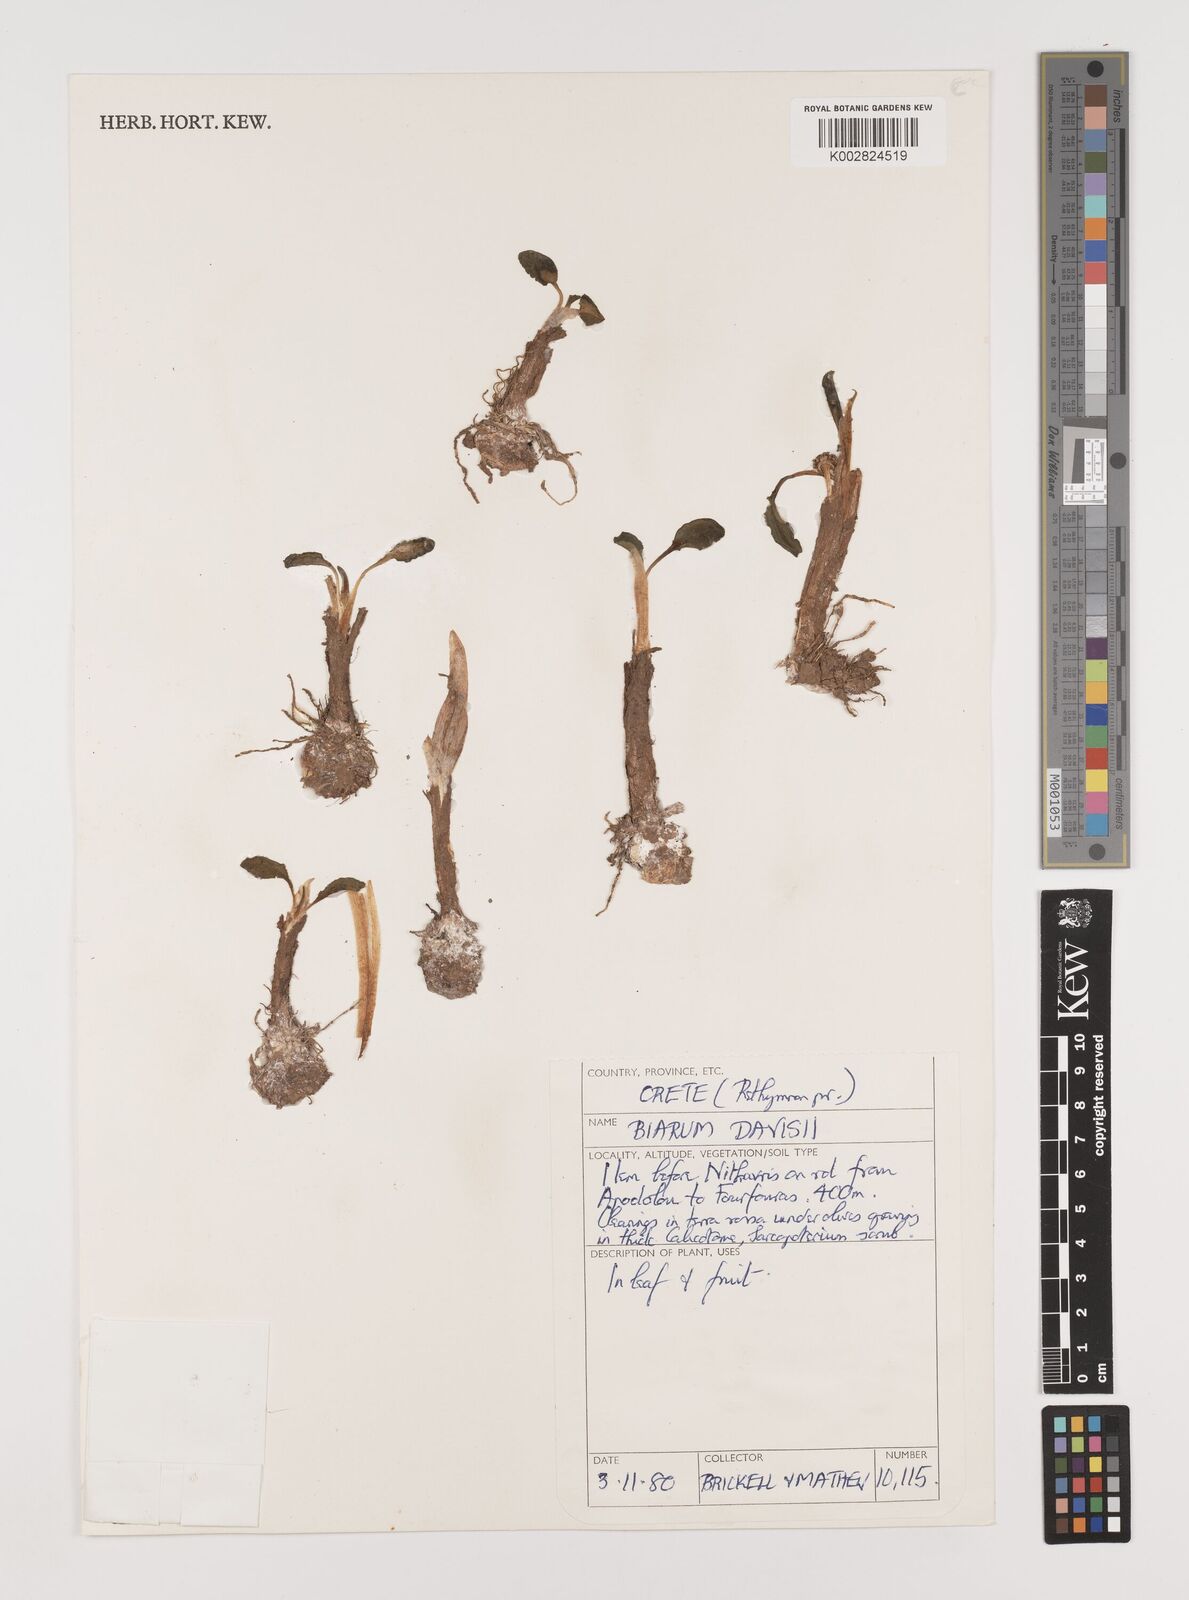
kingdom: Plantae
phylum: Tracheophyta
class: Liliopsida
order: Alismatales
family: Araceae
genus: Biarum
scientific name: Biarum davisii
